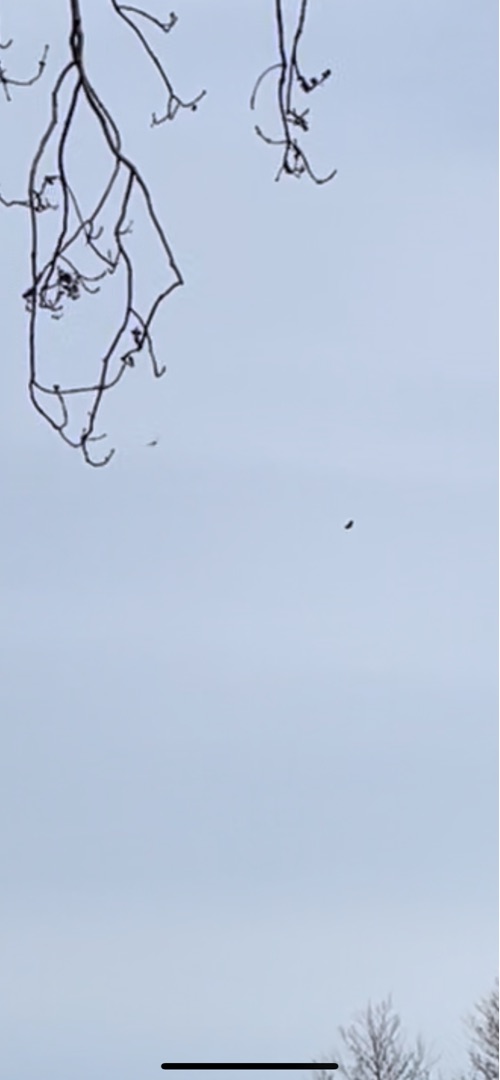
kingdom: Animalia
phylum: Chordata
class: Aves
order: Accipitriformes
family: Accipitridae
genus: Haliaeetus
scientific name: Haliaeetus albicilla
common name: Havørn
